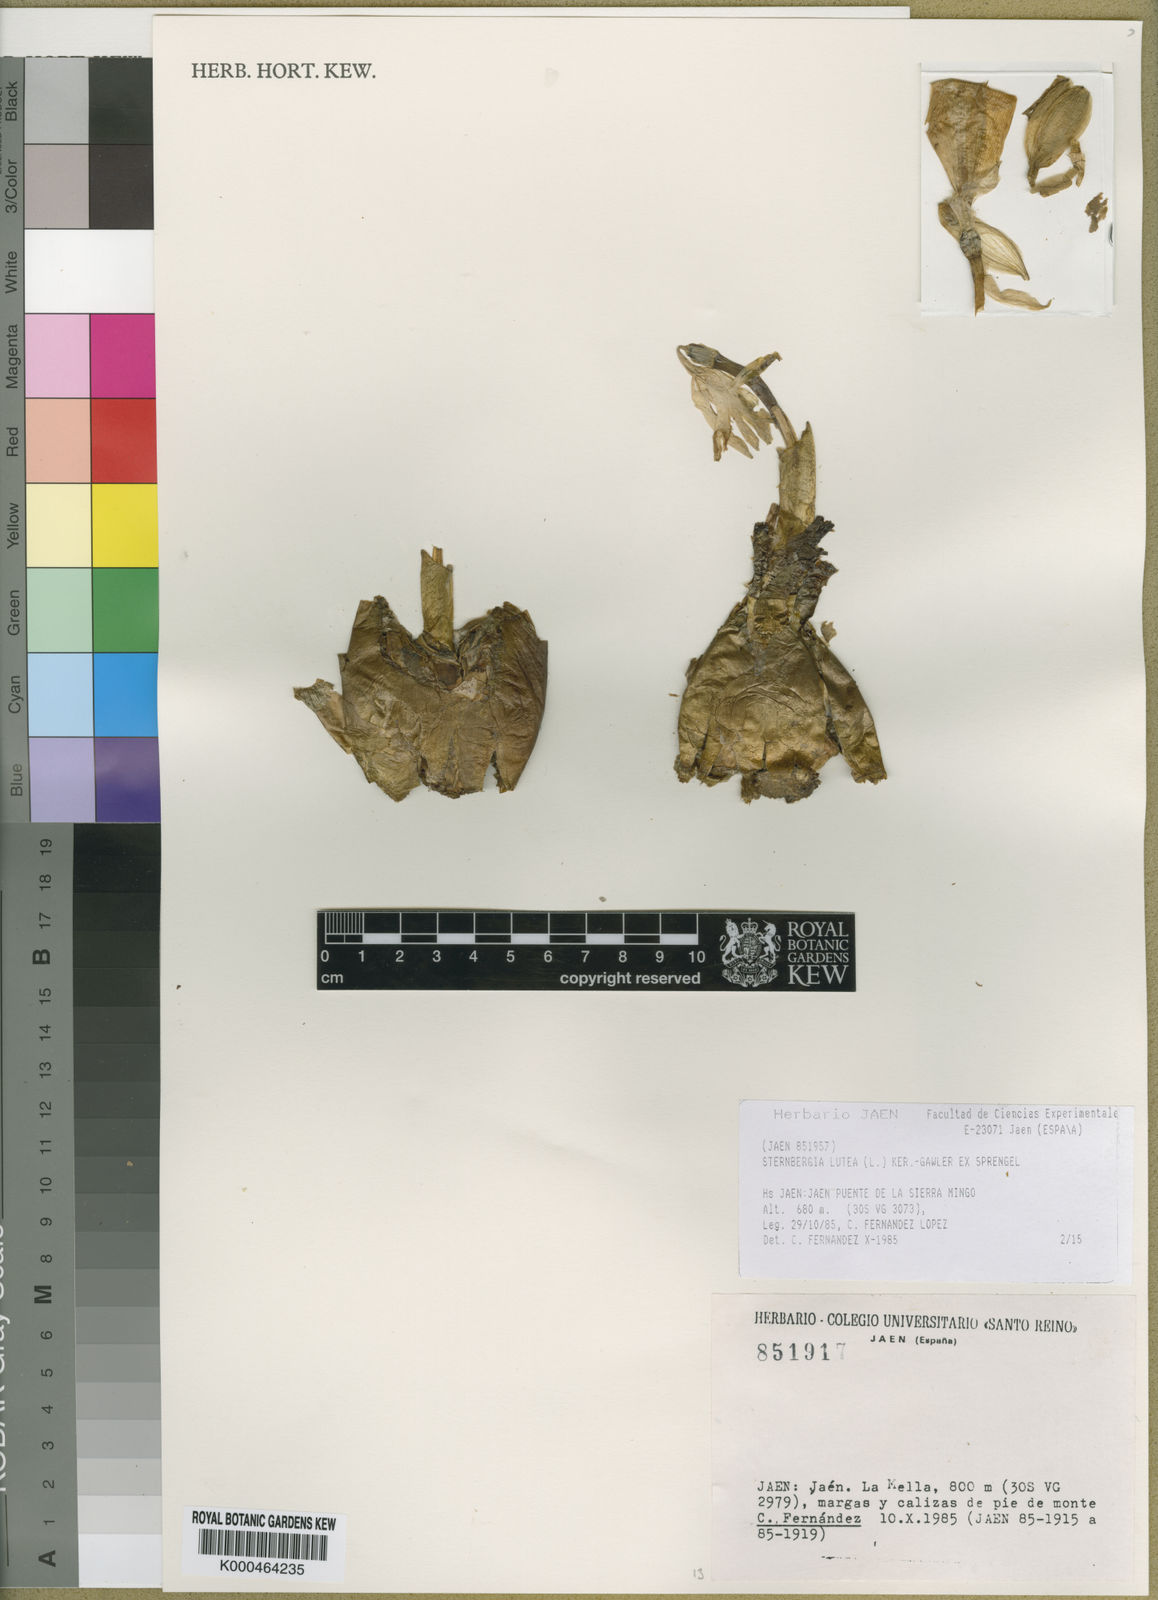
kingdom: Plantae
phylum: Tracheophyta
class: Liliopsida
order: Asparagales
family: Amaryllidaceae
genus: Sternbergia
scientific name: Sternbergia
